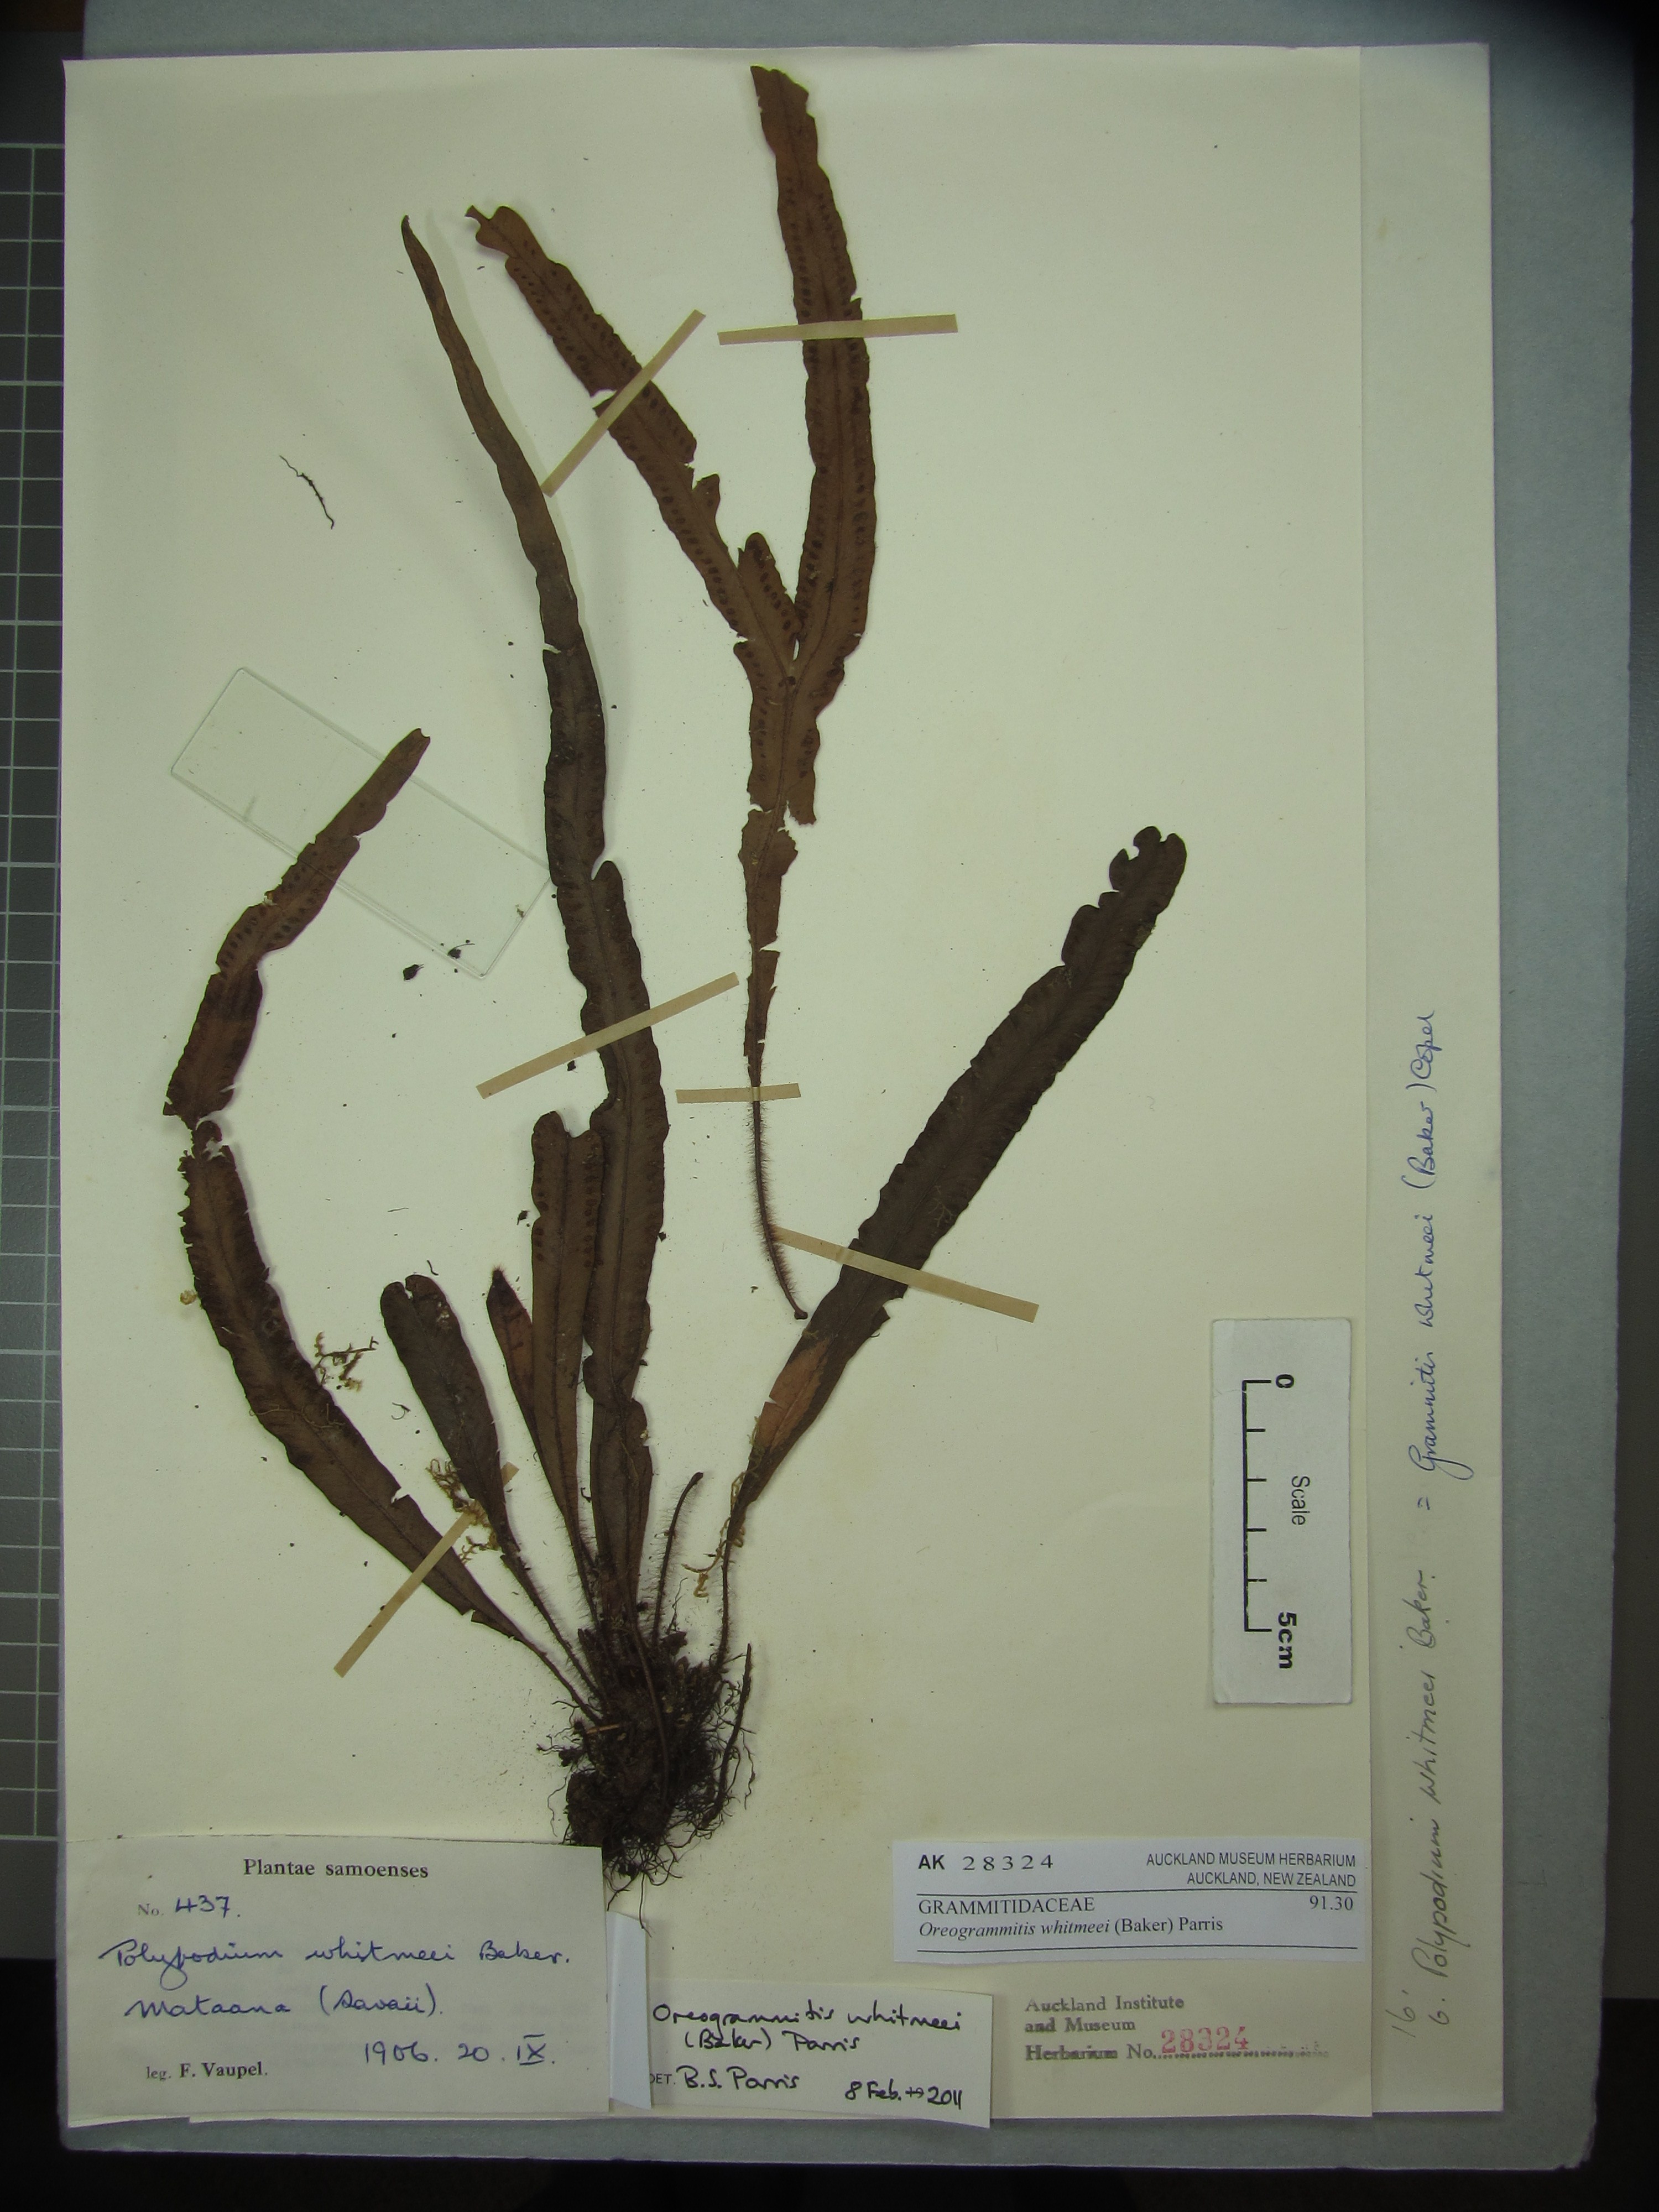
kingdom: Plantae
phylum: Tracheophyta
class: Polypodiopsida
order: Polypodiales
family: Polypodiaceae
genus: Oreogrammitis
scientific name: Oreogrammitis whitmeei
